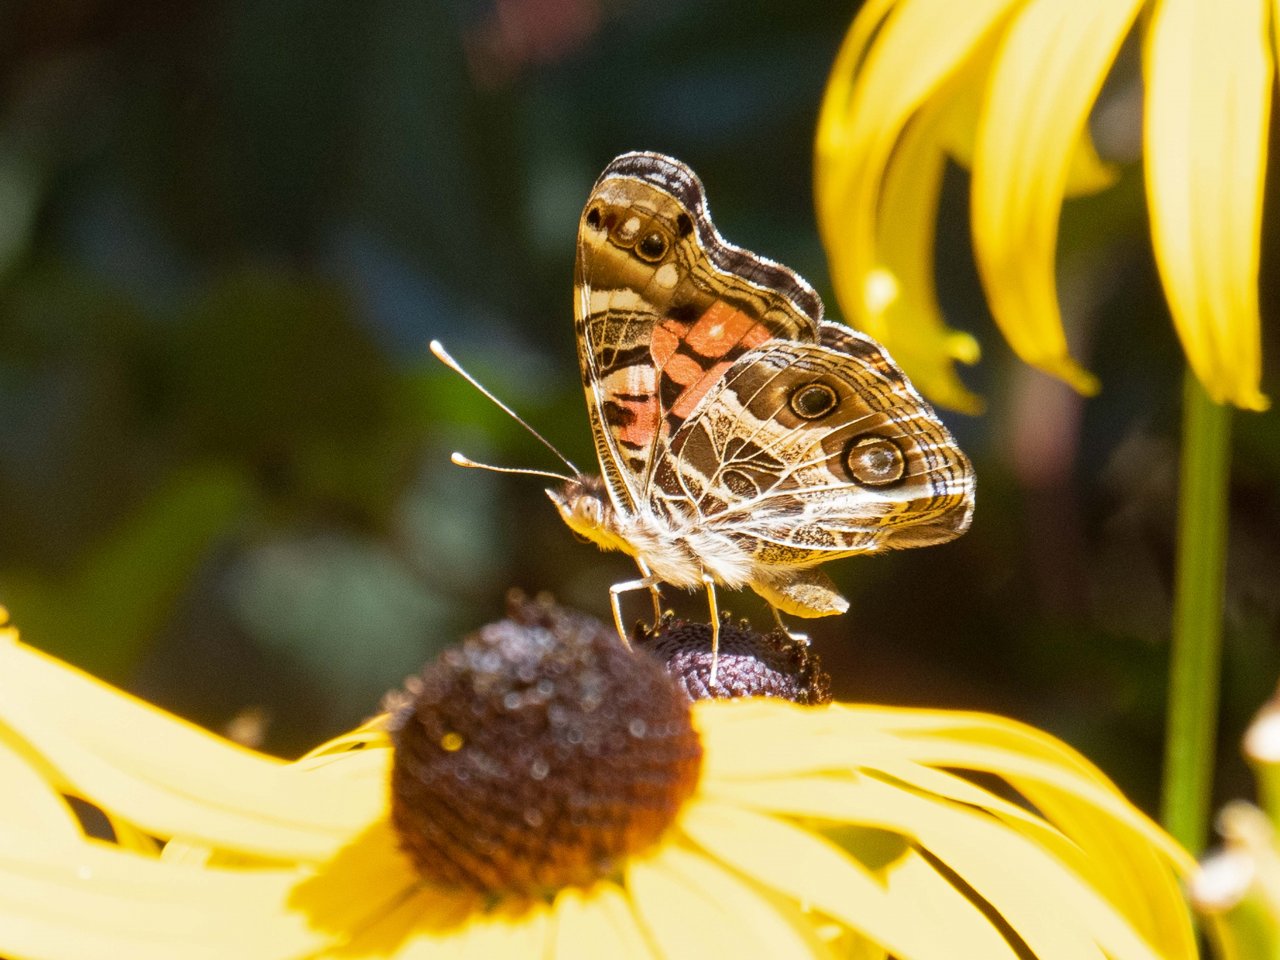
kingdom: Animalia
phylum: Arthropoda
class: Insecta
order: Lepidoptera
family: Nymphalidae
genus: Vanessa
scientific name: Vanessa virginiensis
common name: American Lady
